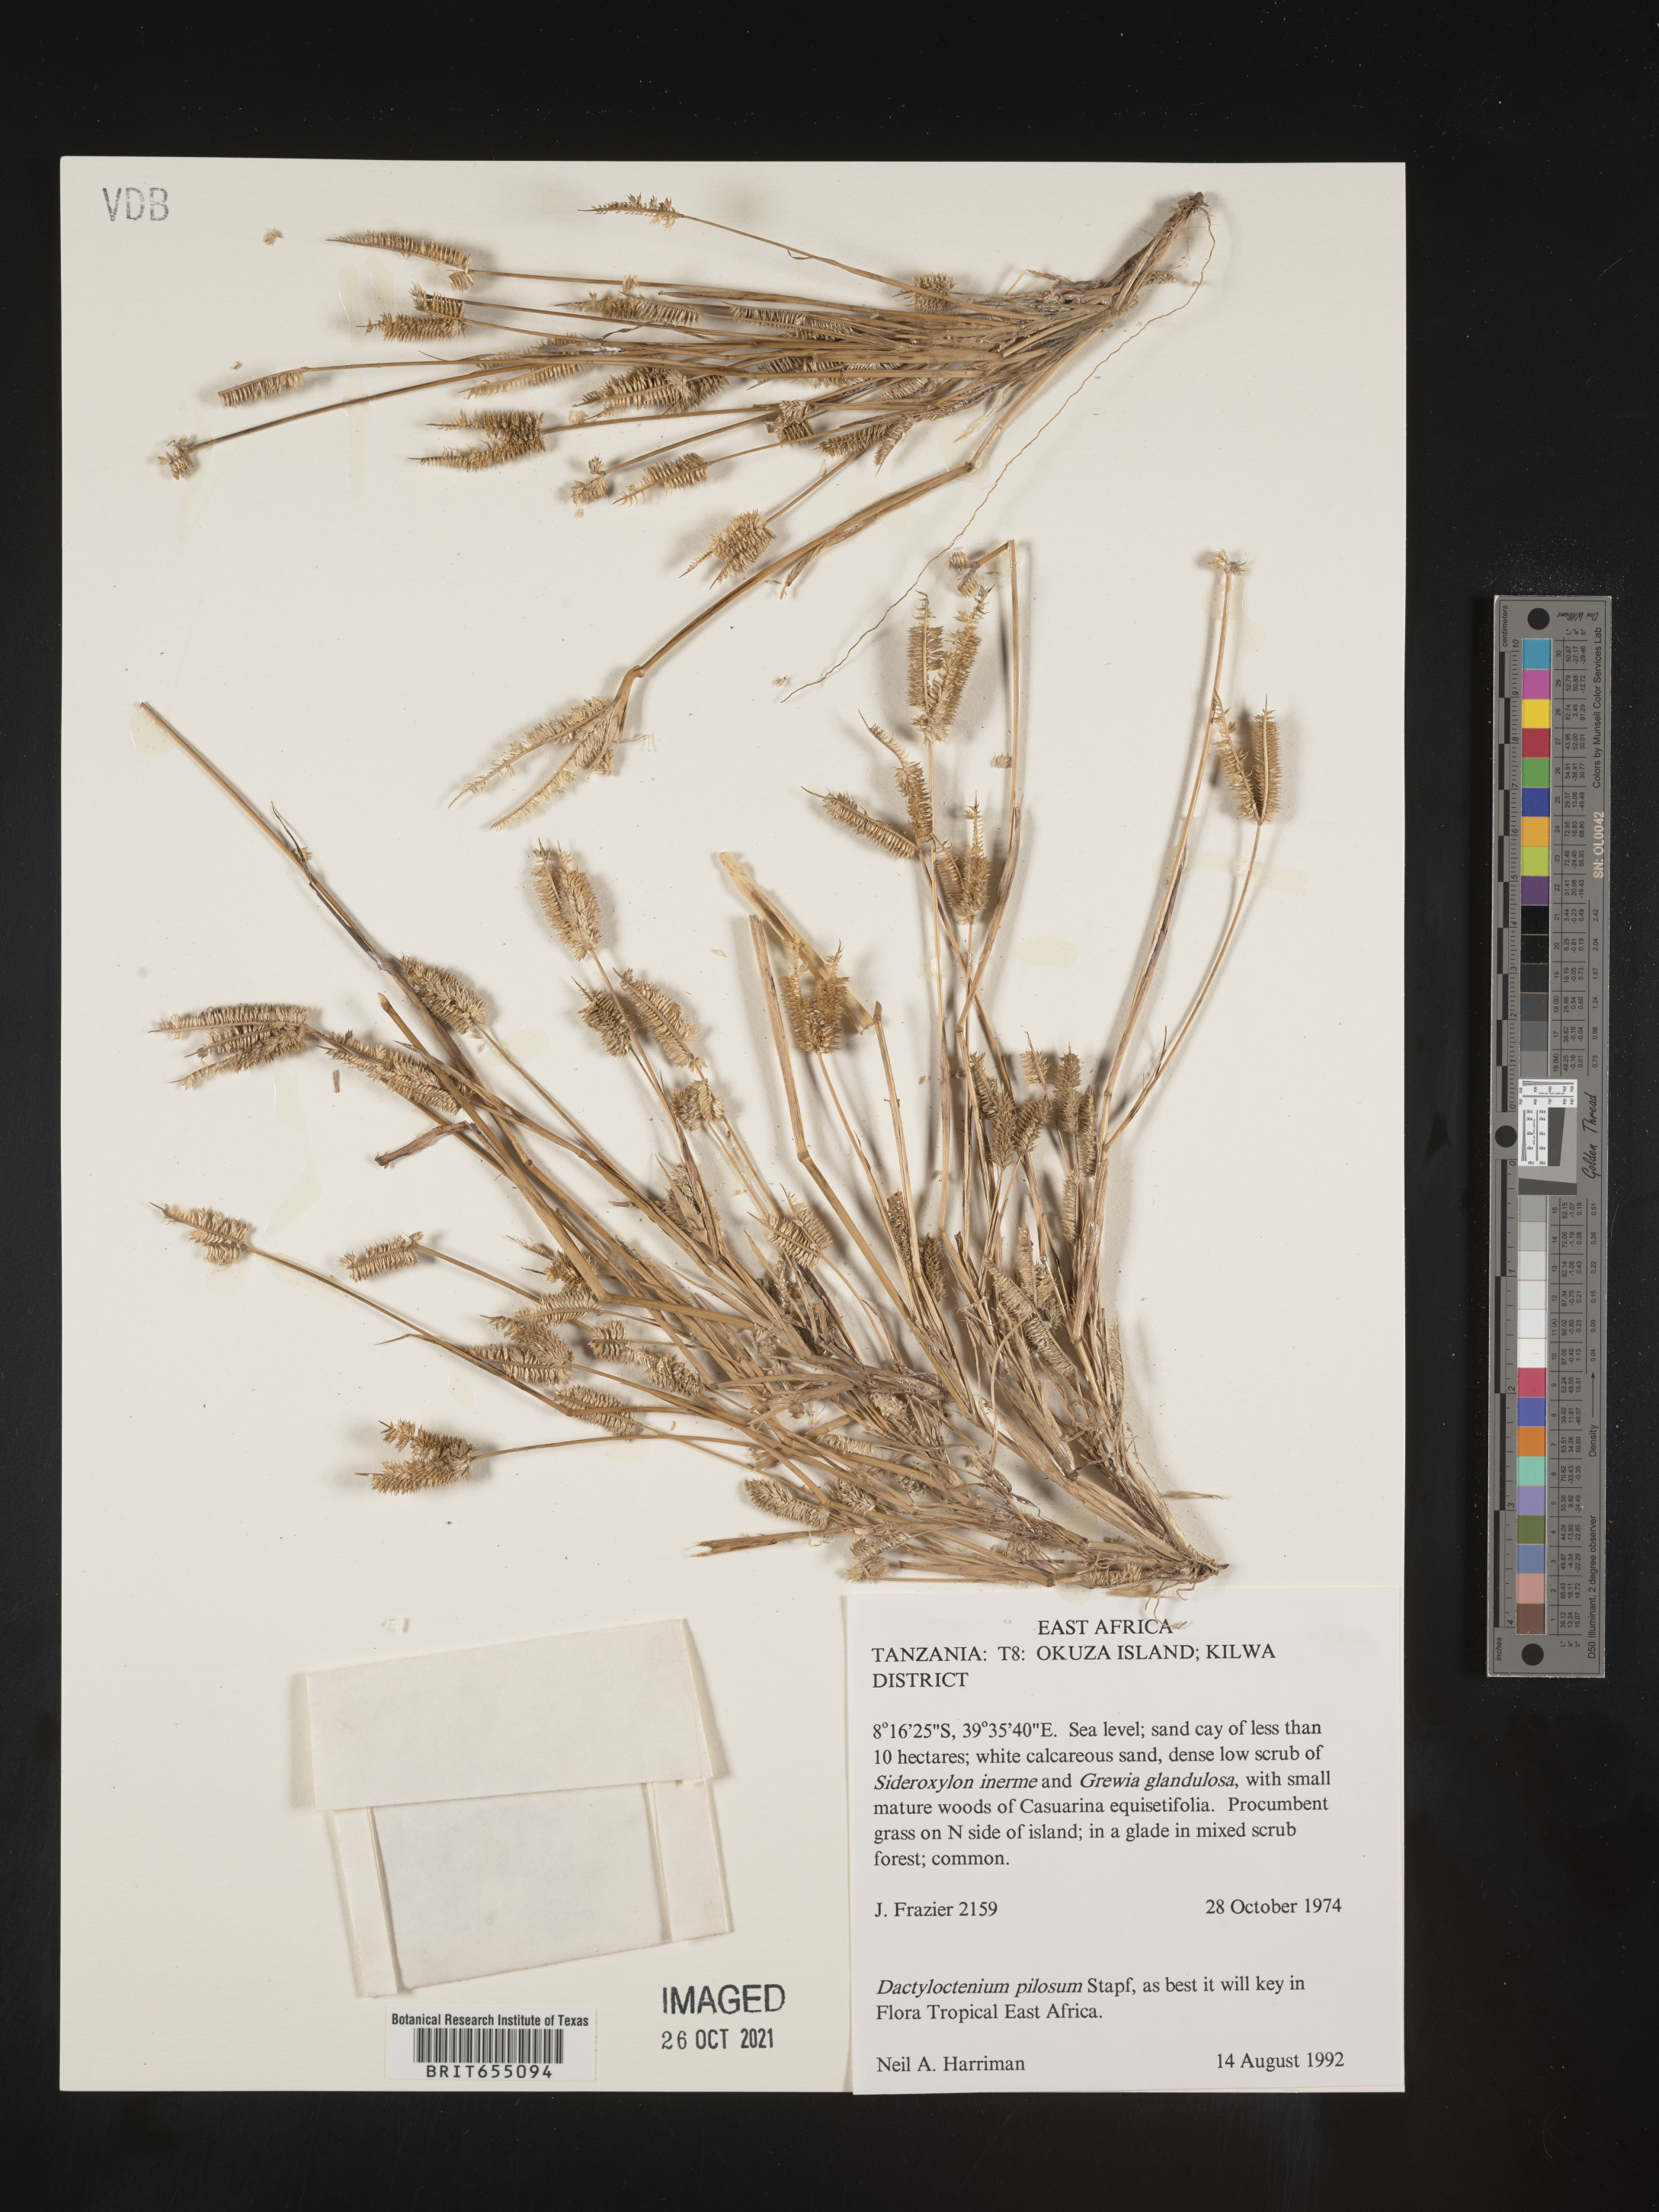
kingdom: Plantae
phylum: Tracheophyta
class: Liliopsida
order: Poales
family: Poaceae
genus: Dactyloctenium
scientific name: Dactyloctenium
